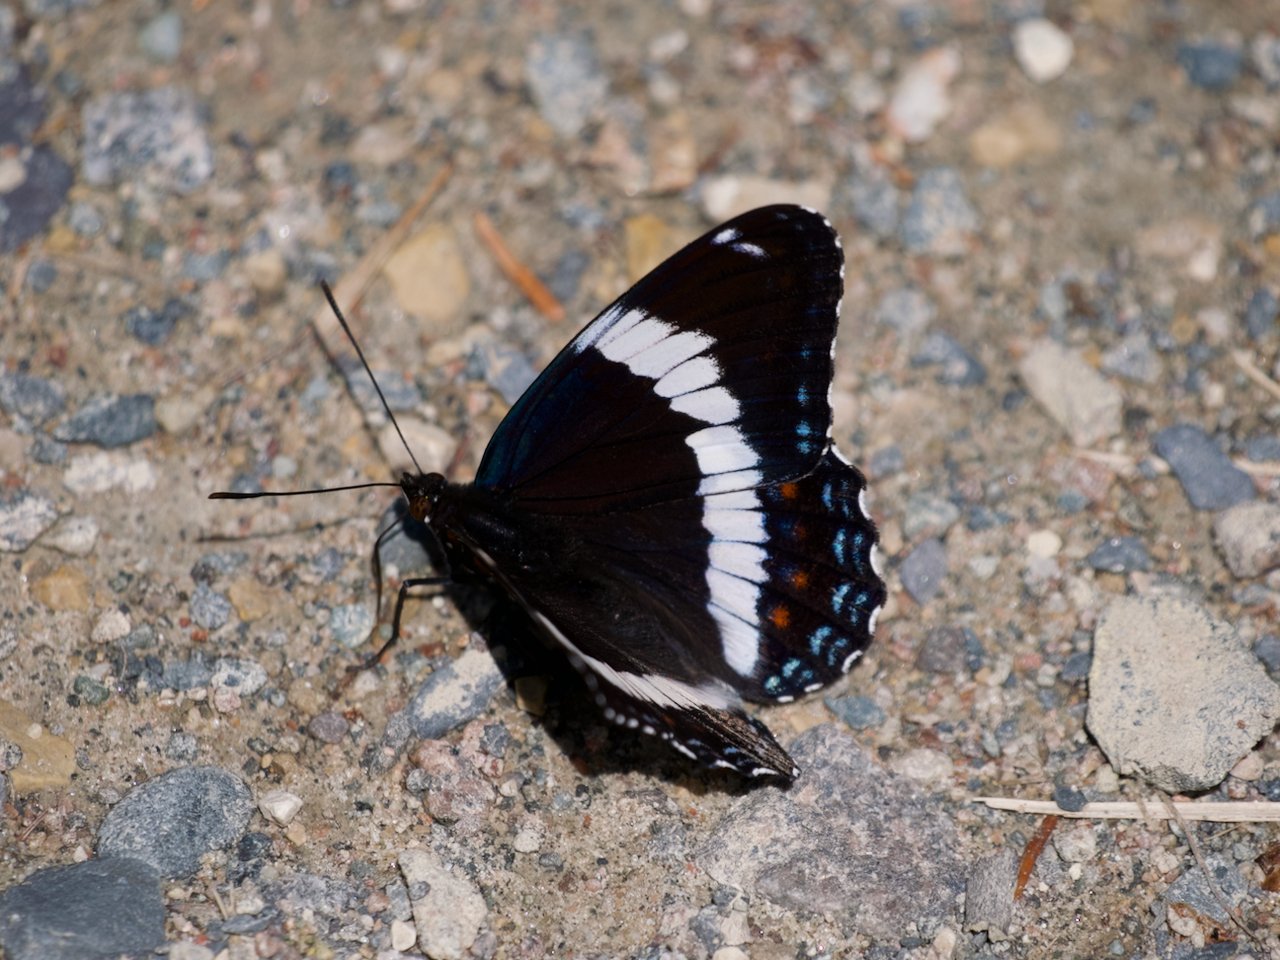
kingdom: Animalia
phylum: Arthropoda
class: Insecta
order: Lepidoptera
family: Nymphalidae
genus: Limenitis
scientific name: Limenitis arthemis
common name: Red-spotted Admiral
